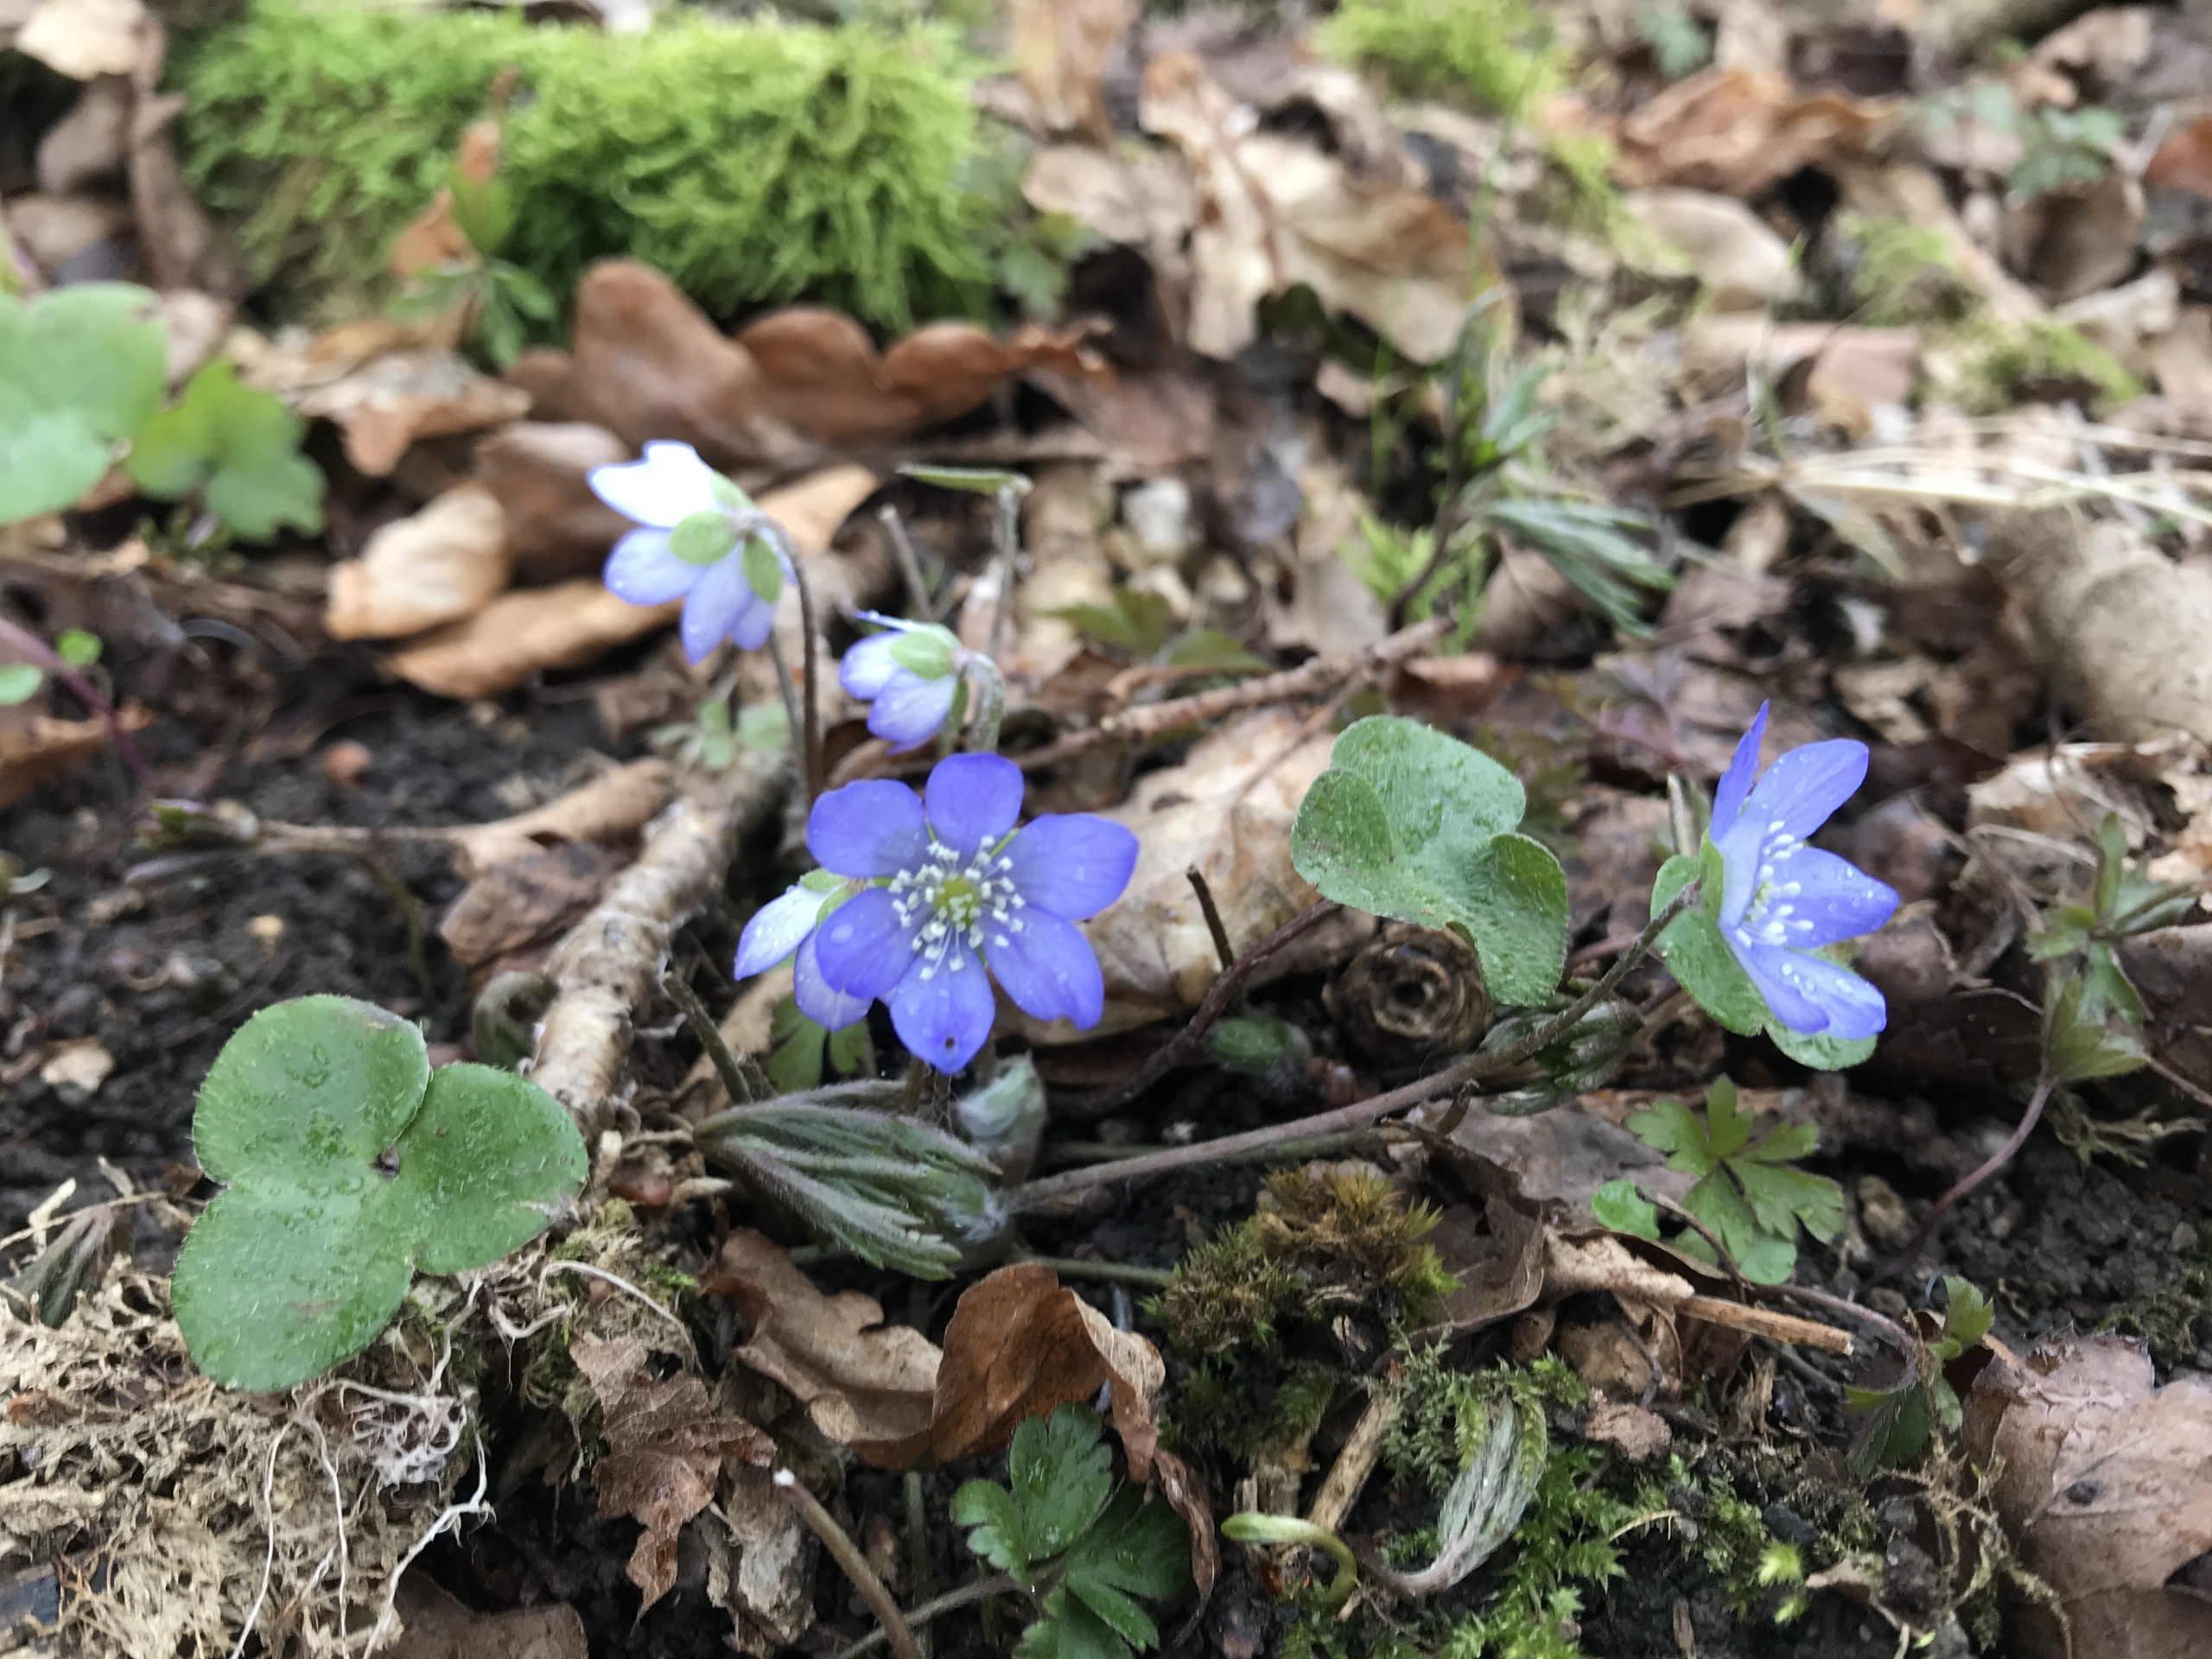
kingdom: Plantae
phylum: Tracheophyta
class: Magnoliopsida
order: Ranunculales
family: Ranunculaceae
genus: Hepatica
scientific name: Hepatica nobilis
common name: Blå anemone
